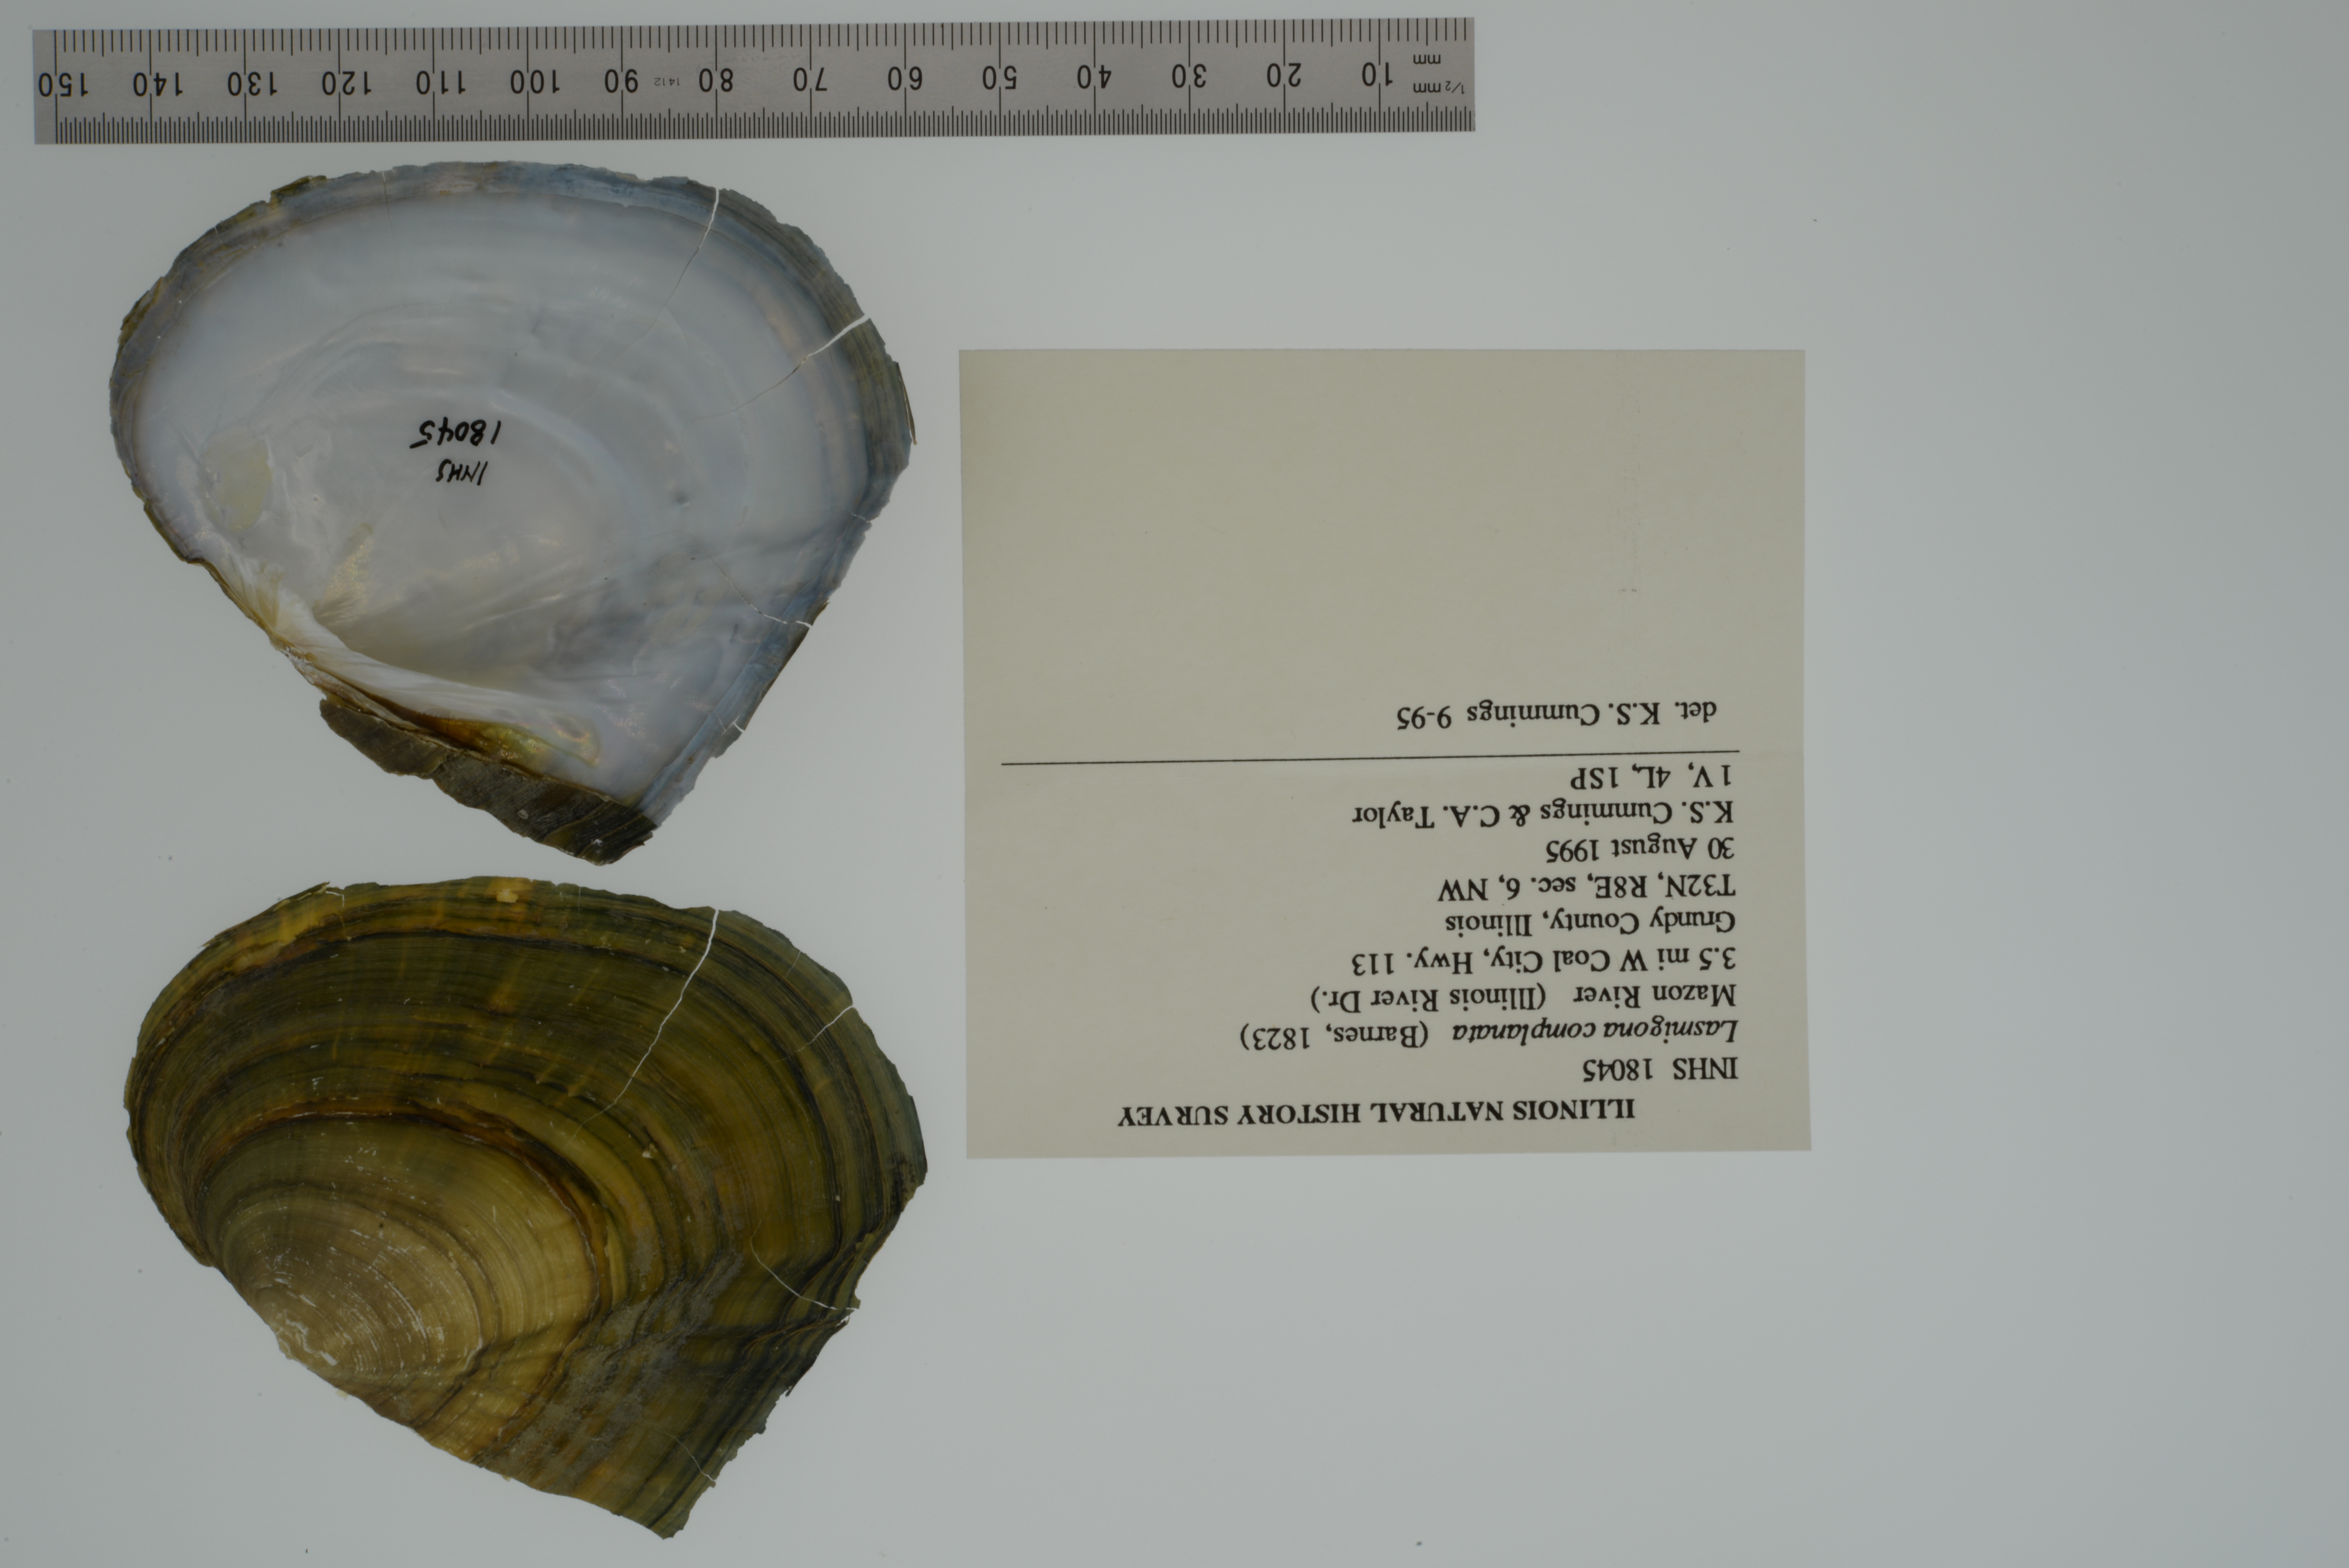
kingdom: Animalia
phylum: Mollusca
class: Bivalvia
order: Unionida
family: Unionidae
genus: Lasmigona
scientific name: Lasmigona complanata
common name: White heelsplitter
